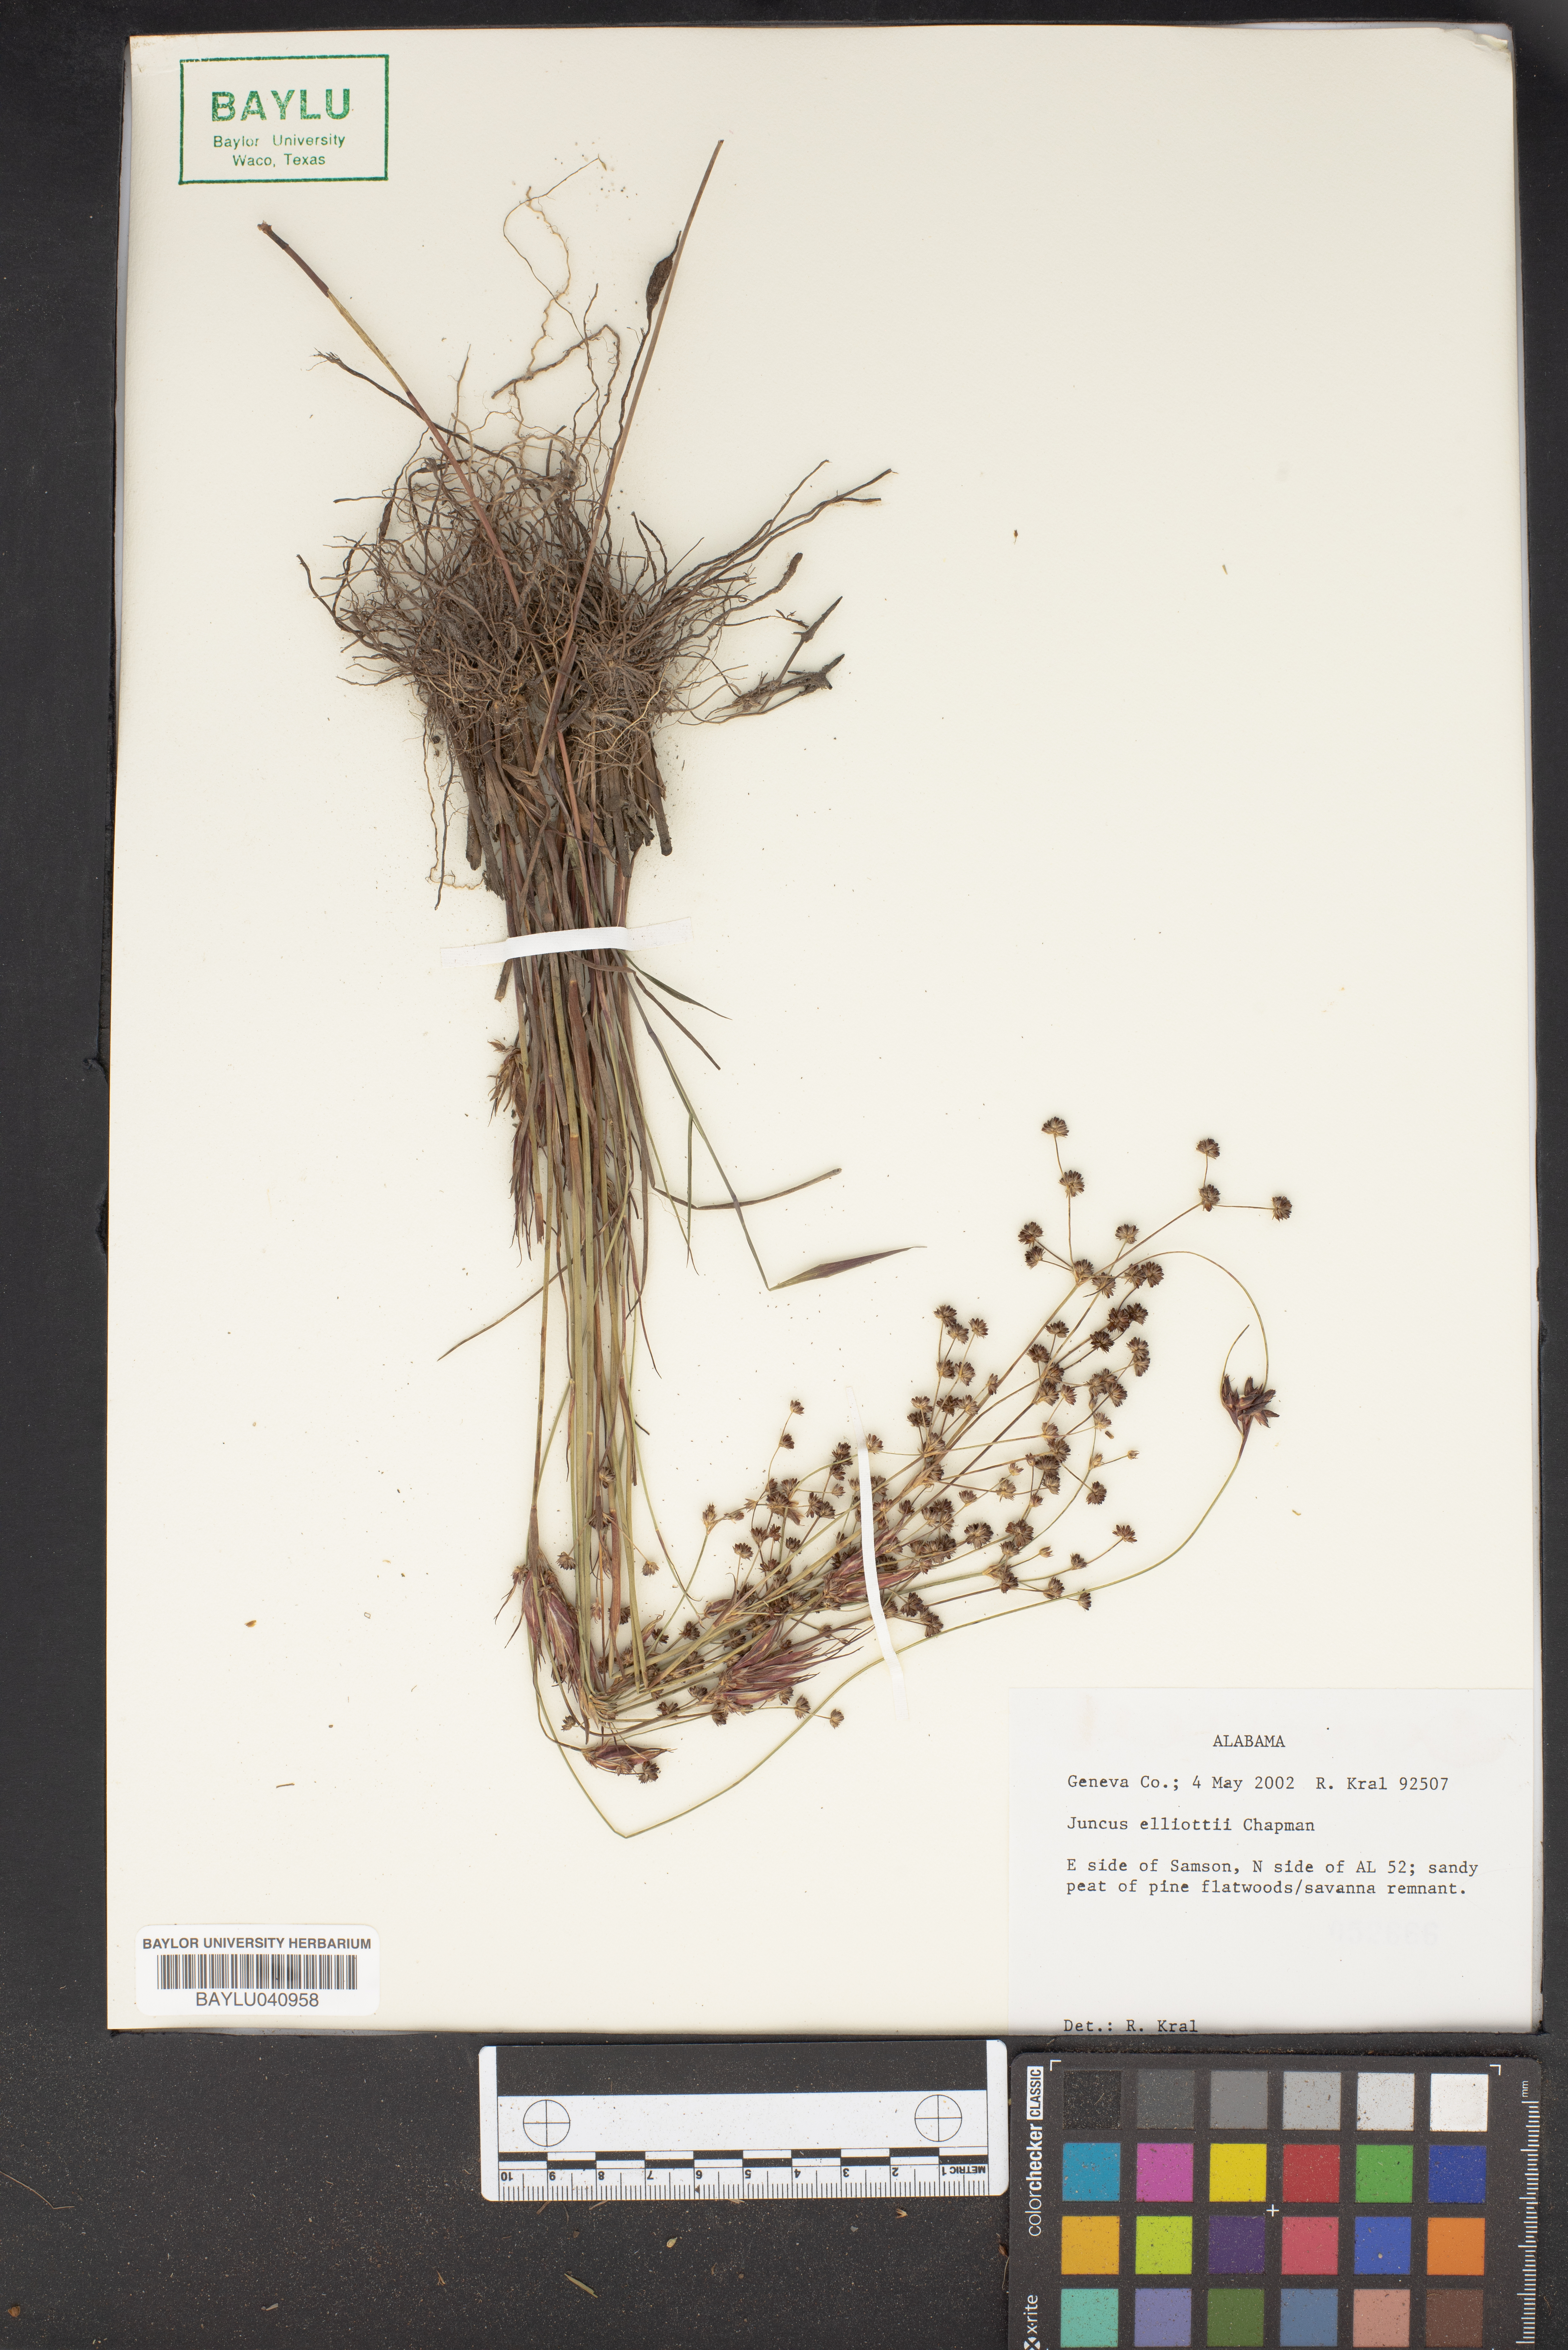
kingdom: Plantae
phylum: Tracheophyta
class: Liliopsida
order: Poales
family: Juncaceae
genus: Juncus
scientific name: Juncus elliottii
